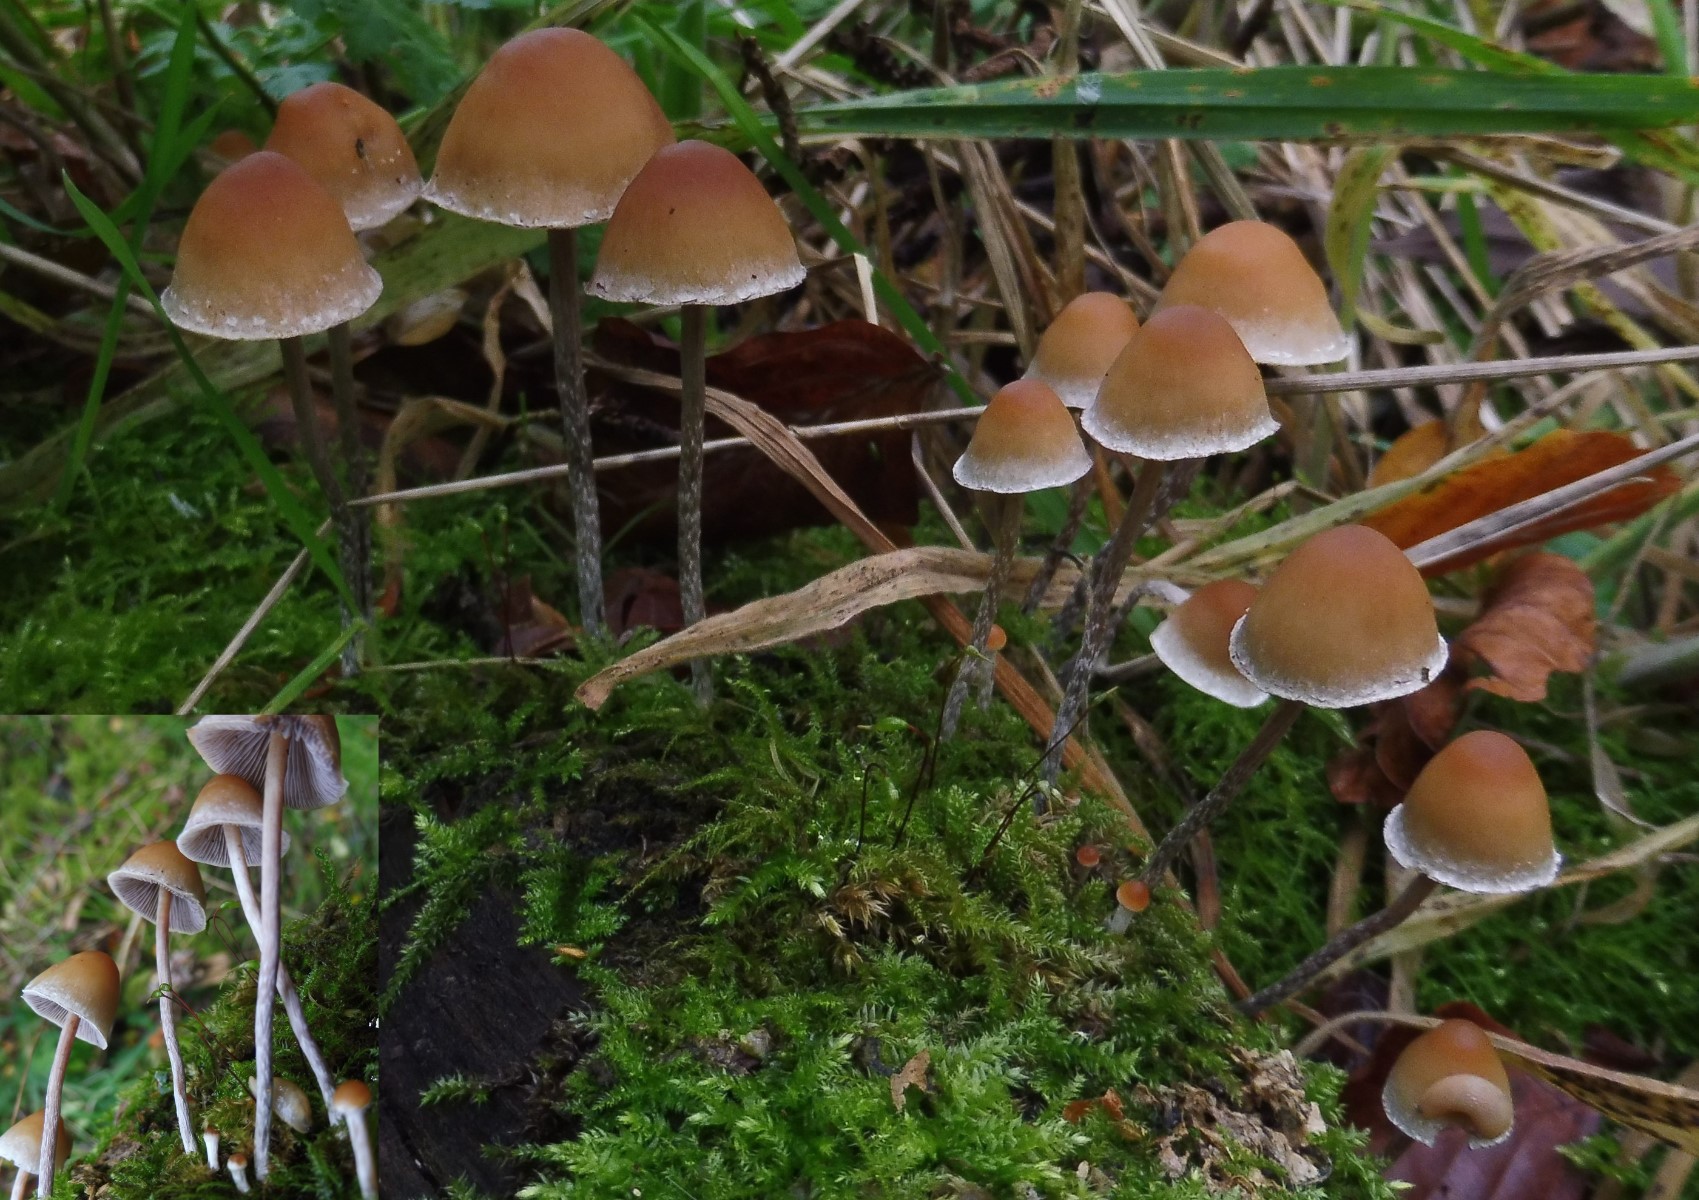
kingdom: Fungi
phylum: Basidiomycota
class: Agaricomycetes
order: Agaricales
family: Strophariaceae
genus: Hypholoma
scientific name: Hypholoma marginatum
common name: enlig svovlhat
